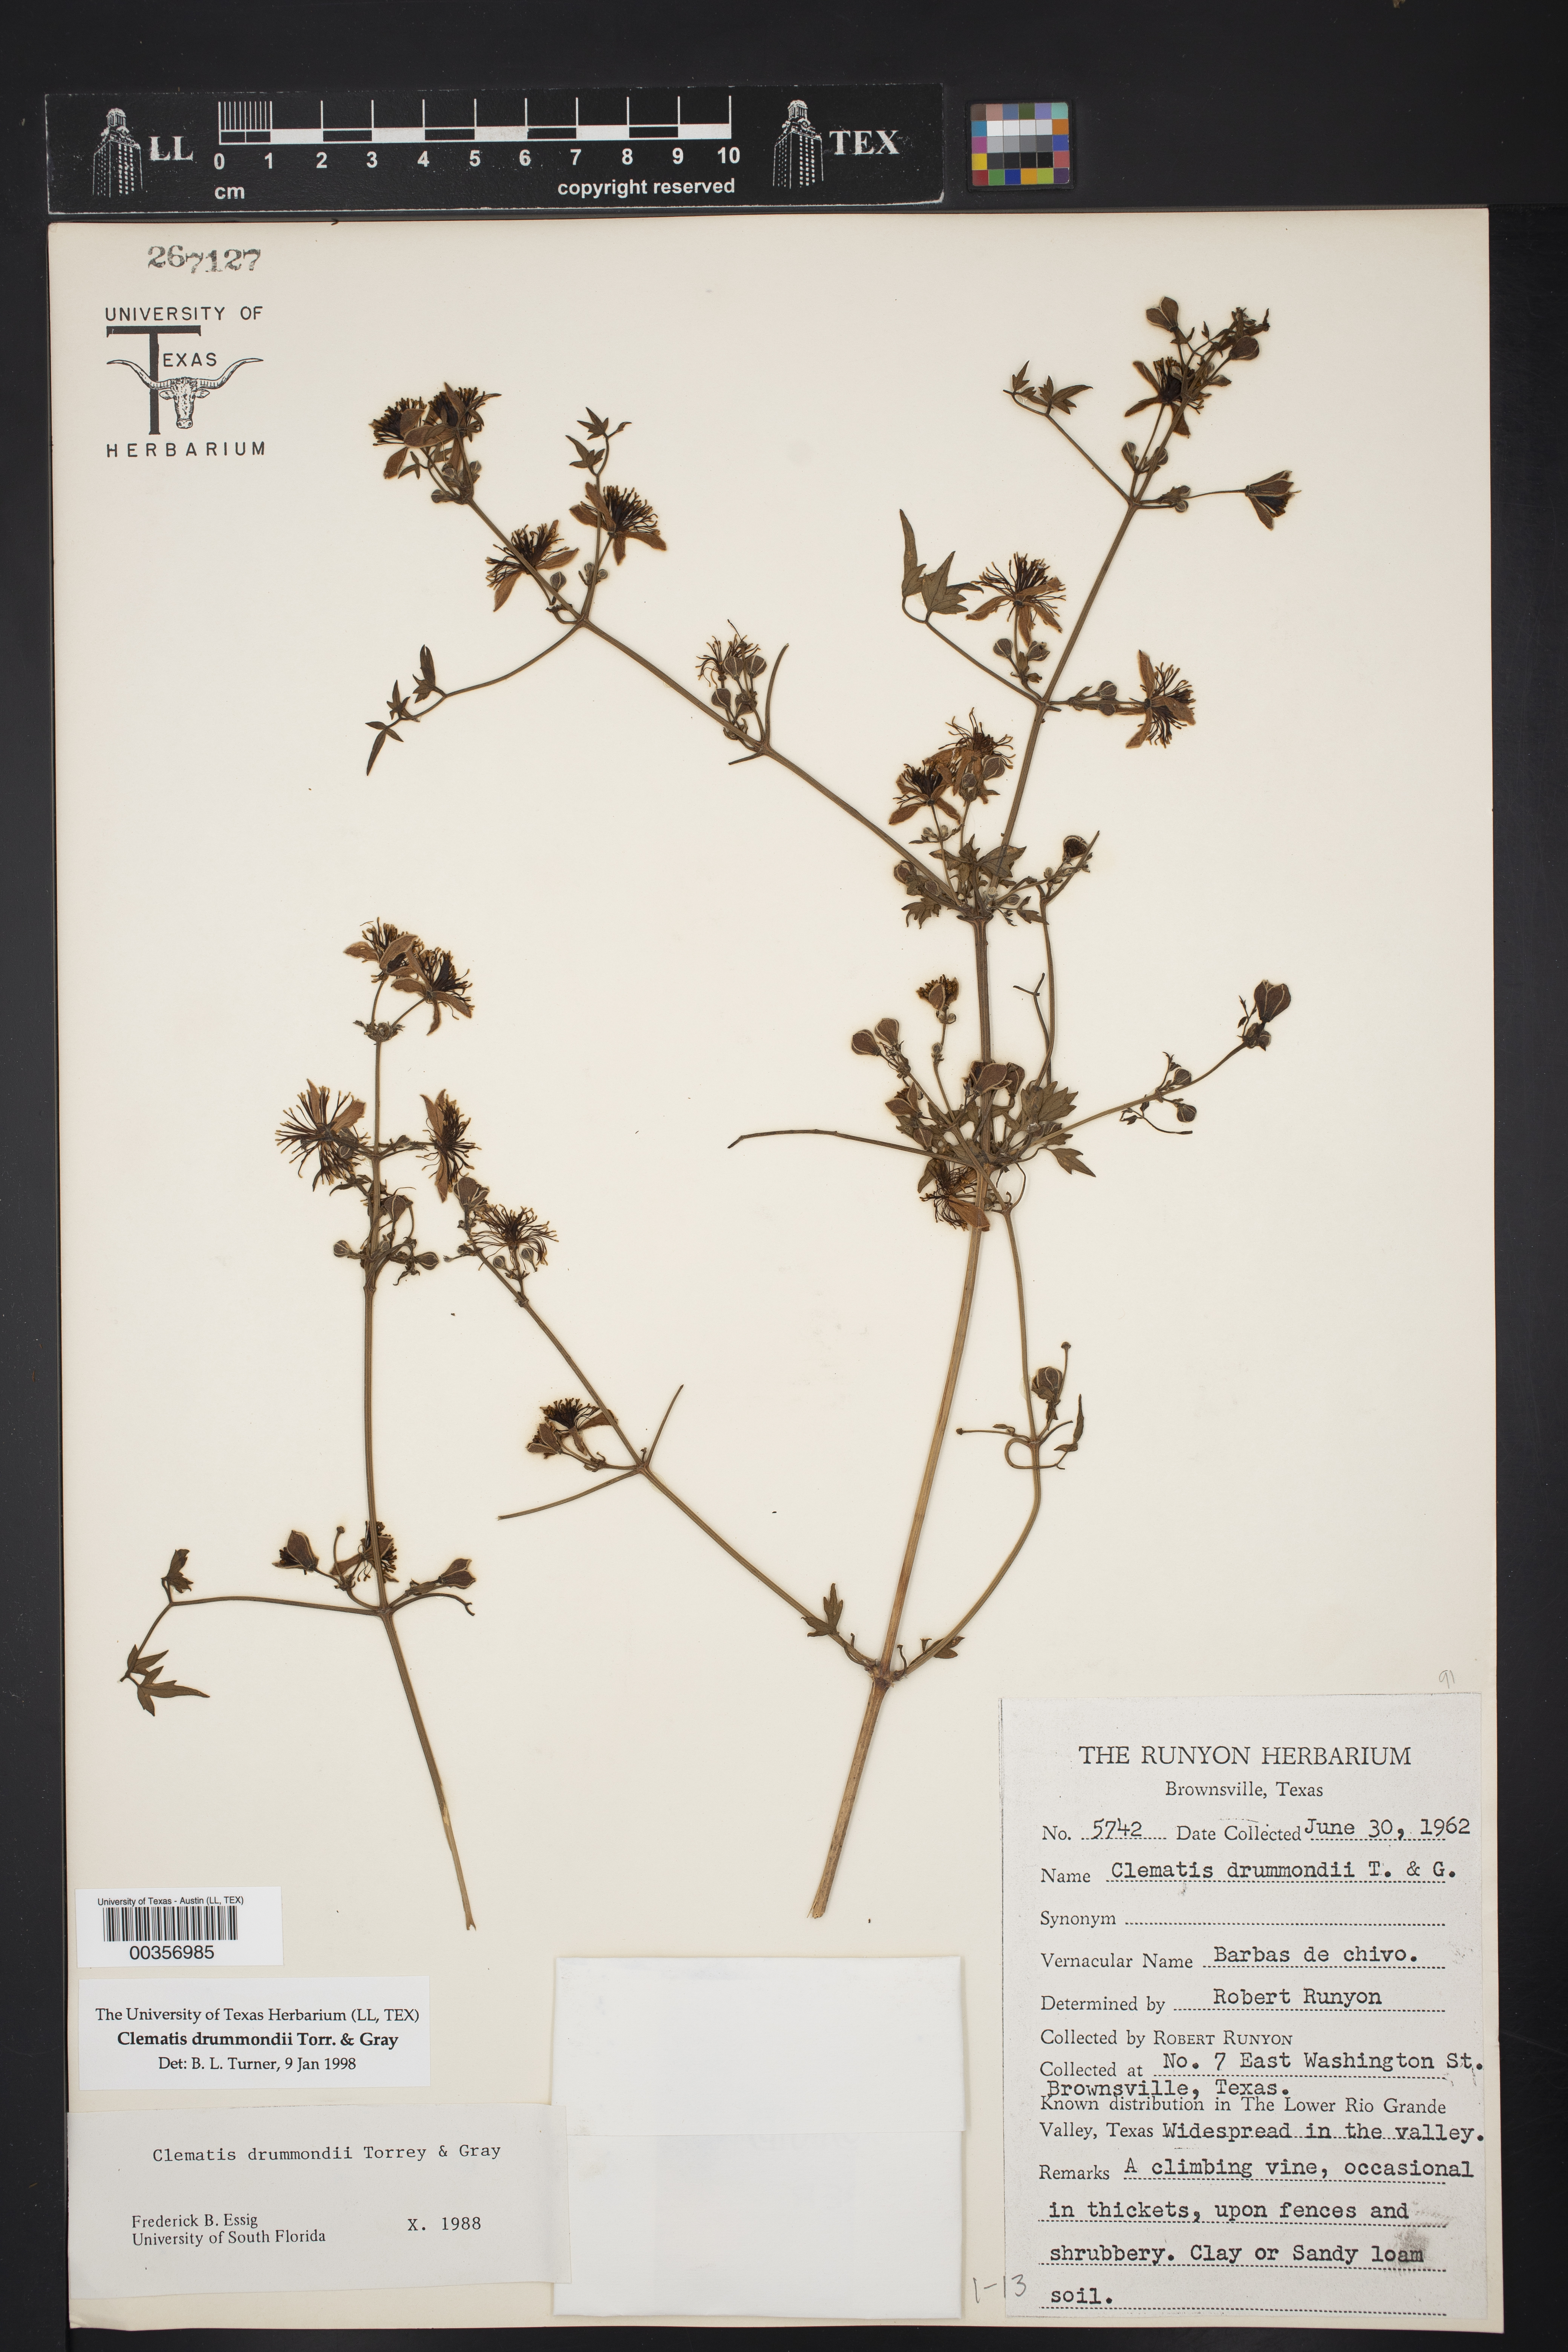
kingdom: Plantae
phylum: Tracheophyta
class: Magnoliopsida
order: Ranunculales
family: Ranunculaceae
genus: Clematis
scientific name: Clematis drummondii
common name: Texas virgin's bower
